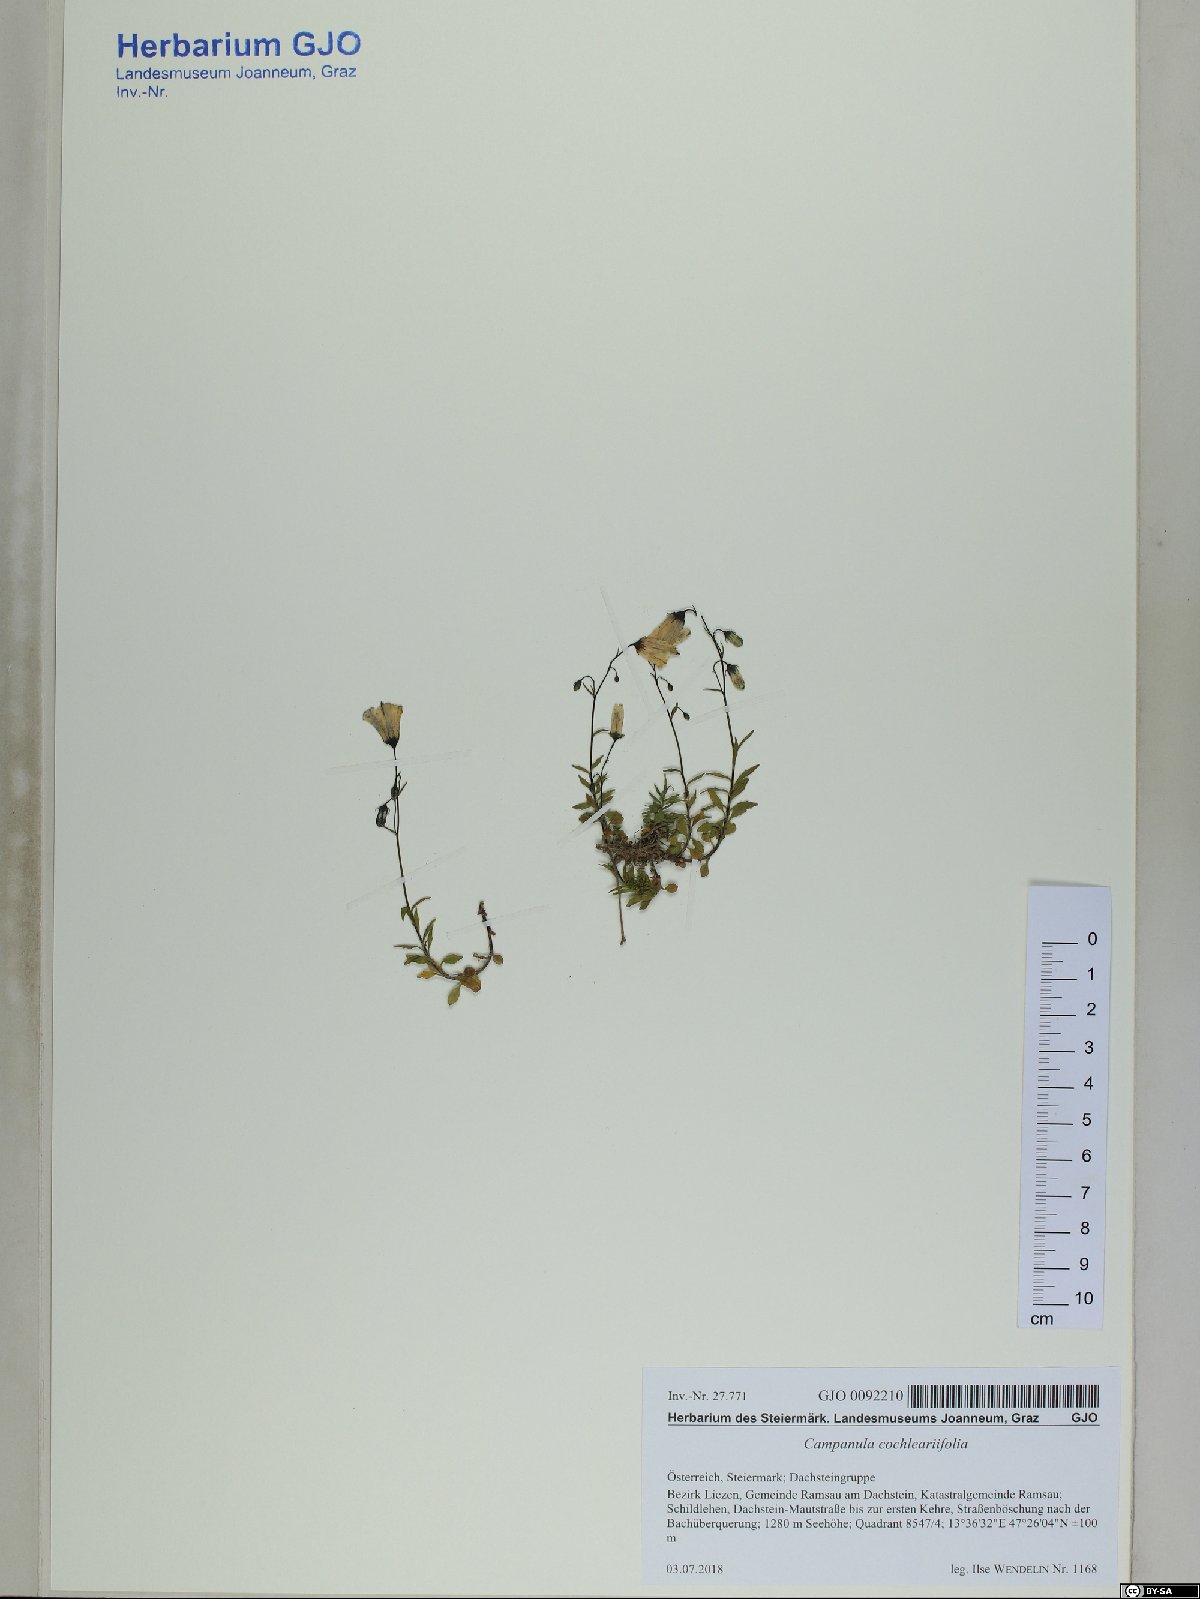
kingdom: Plantae
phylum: Tracheophyta
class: Magnoliopsida
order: Asterales
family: Campanulaceae
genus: Campanula
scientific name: Campanula cochleariifolia
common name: Fairies'-thimbles
